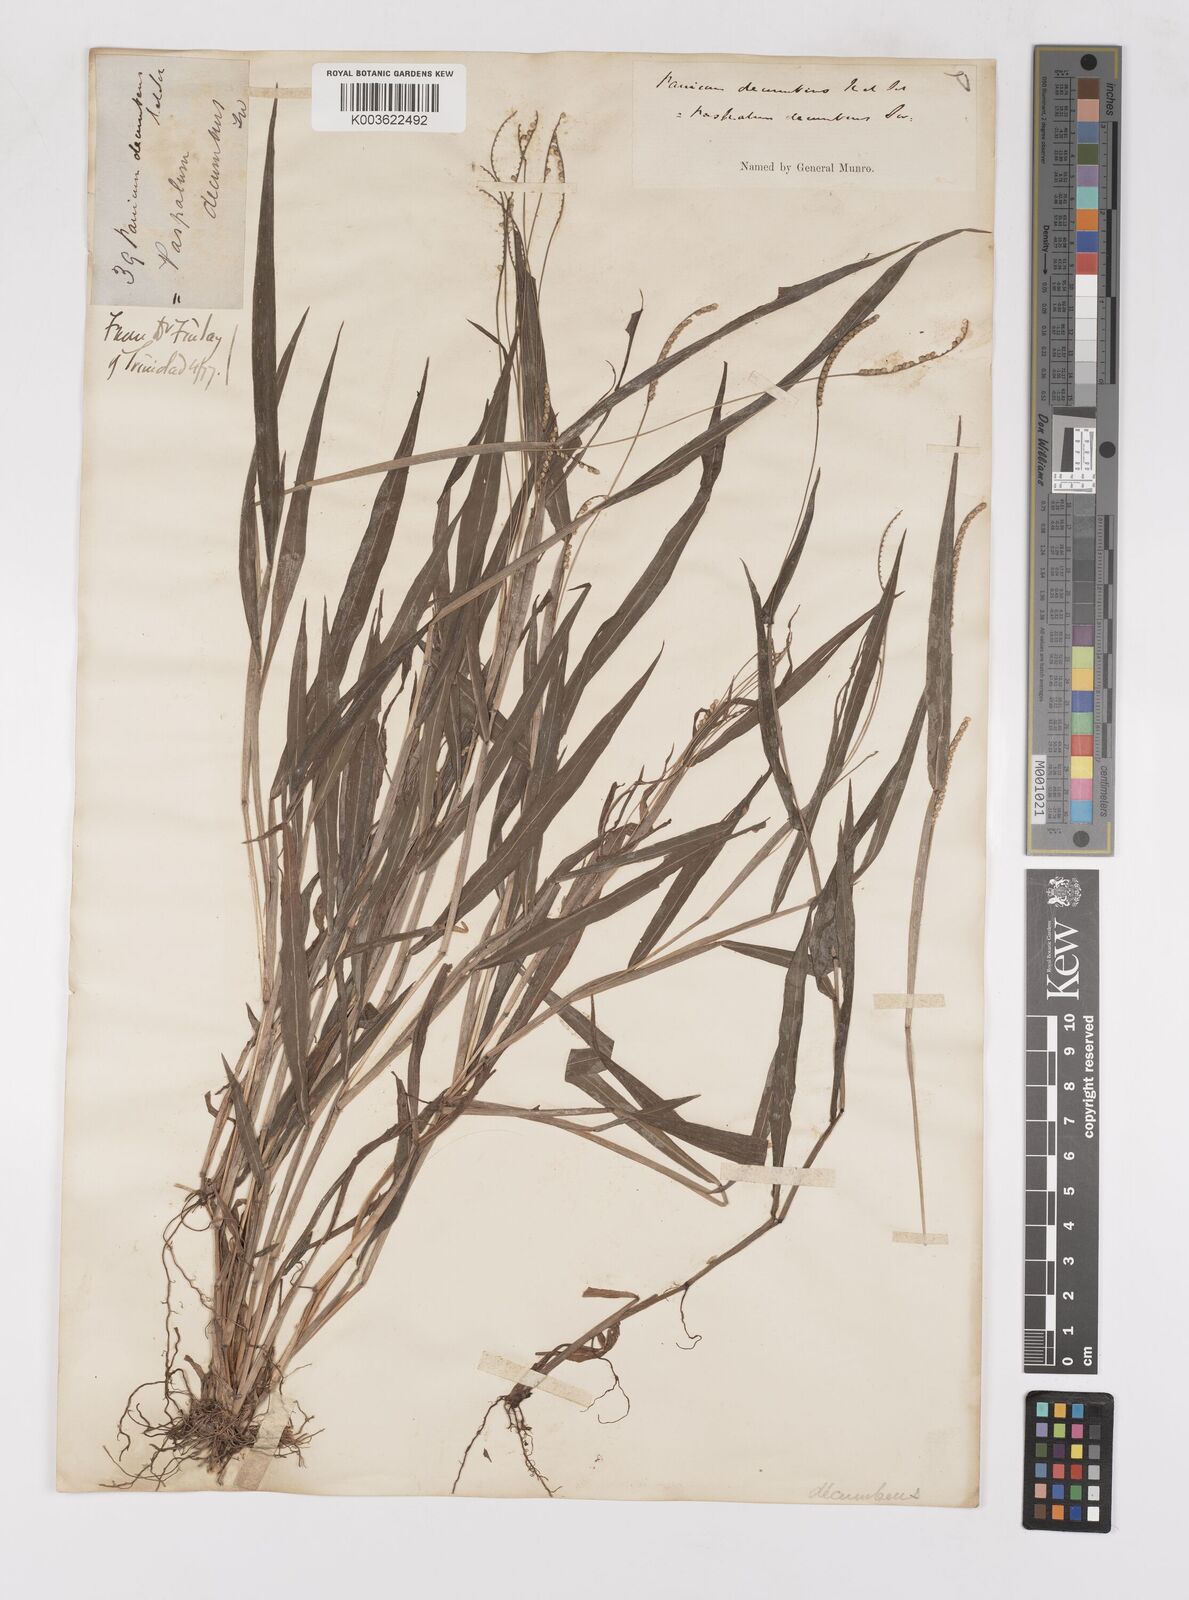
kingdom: Plantae
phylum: Tracheophyta
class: Liliopsida
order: Poales
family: Poaceae
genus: Paspalum
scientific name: Paspalum decumbens
